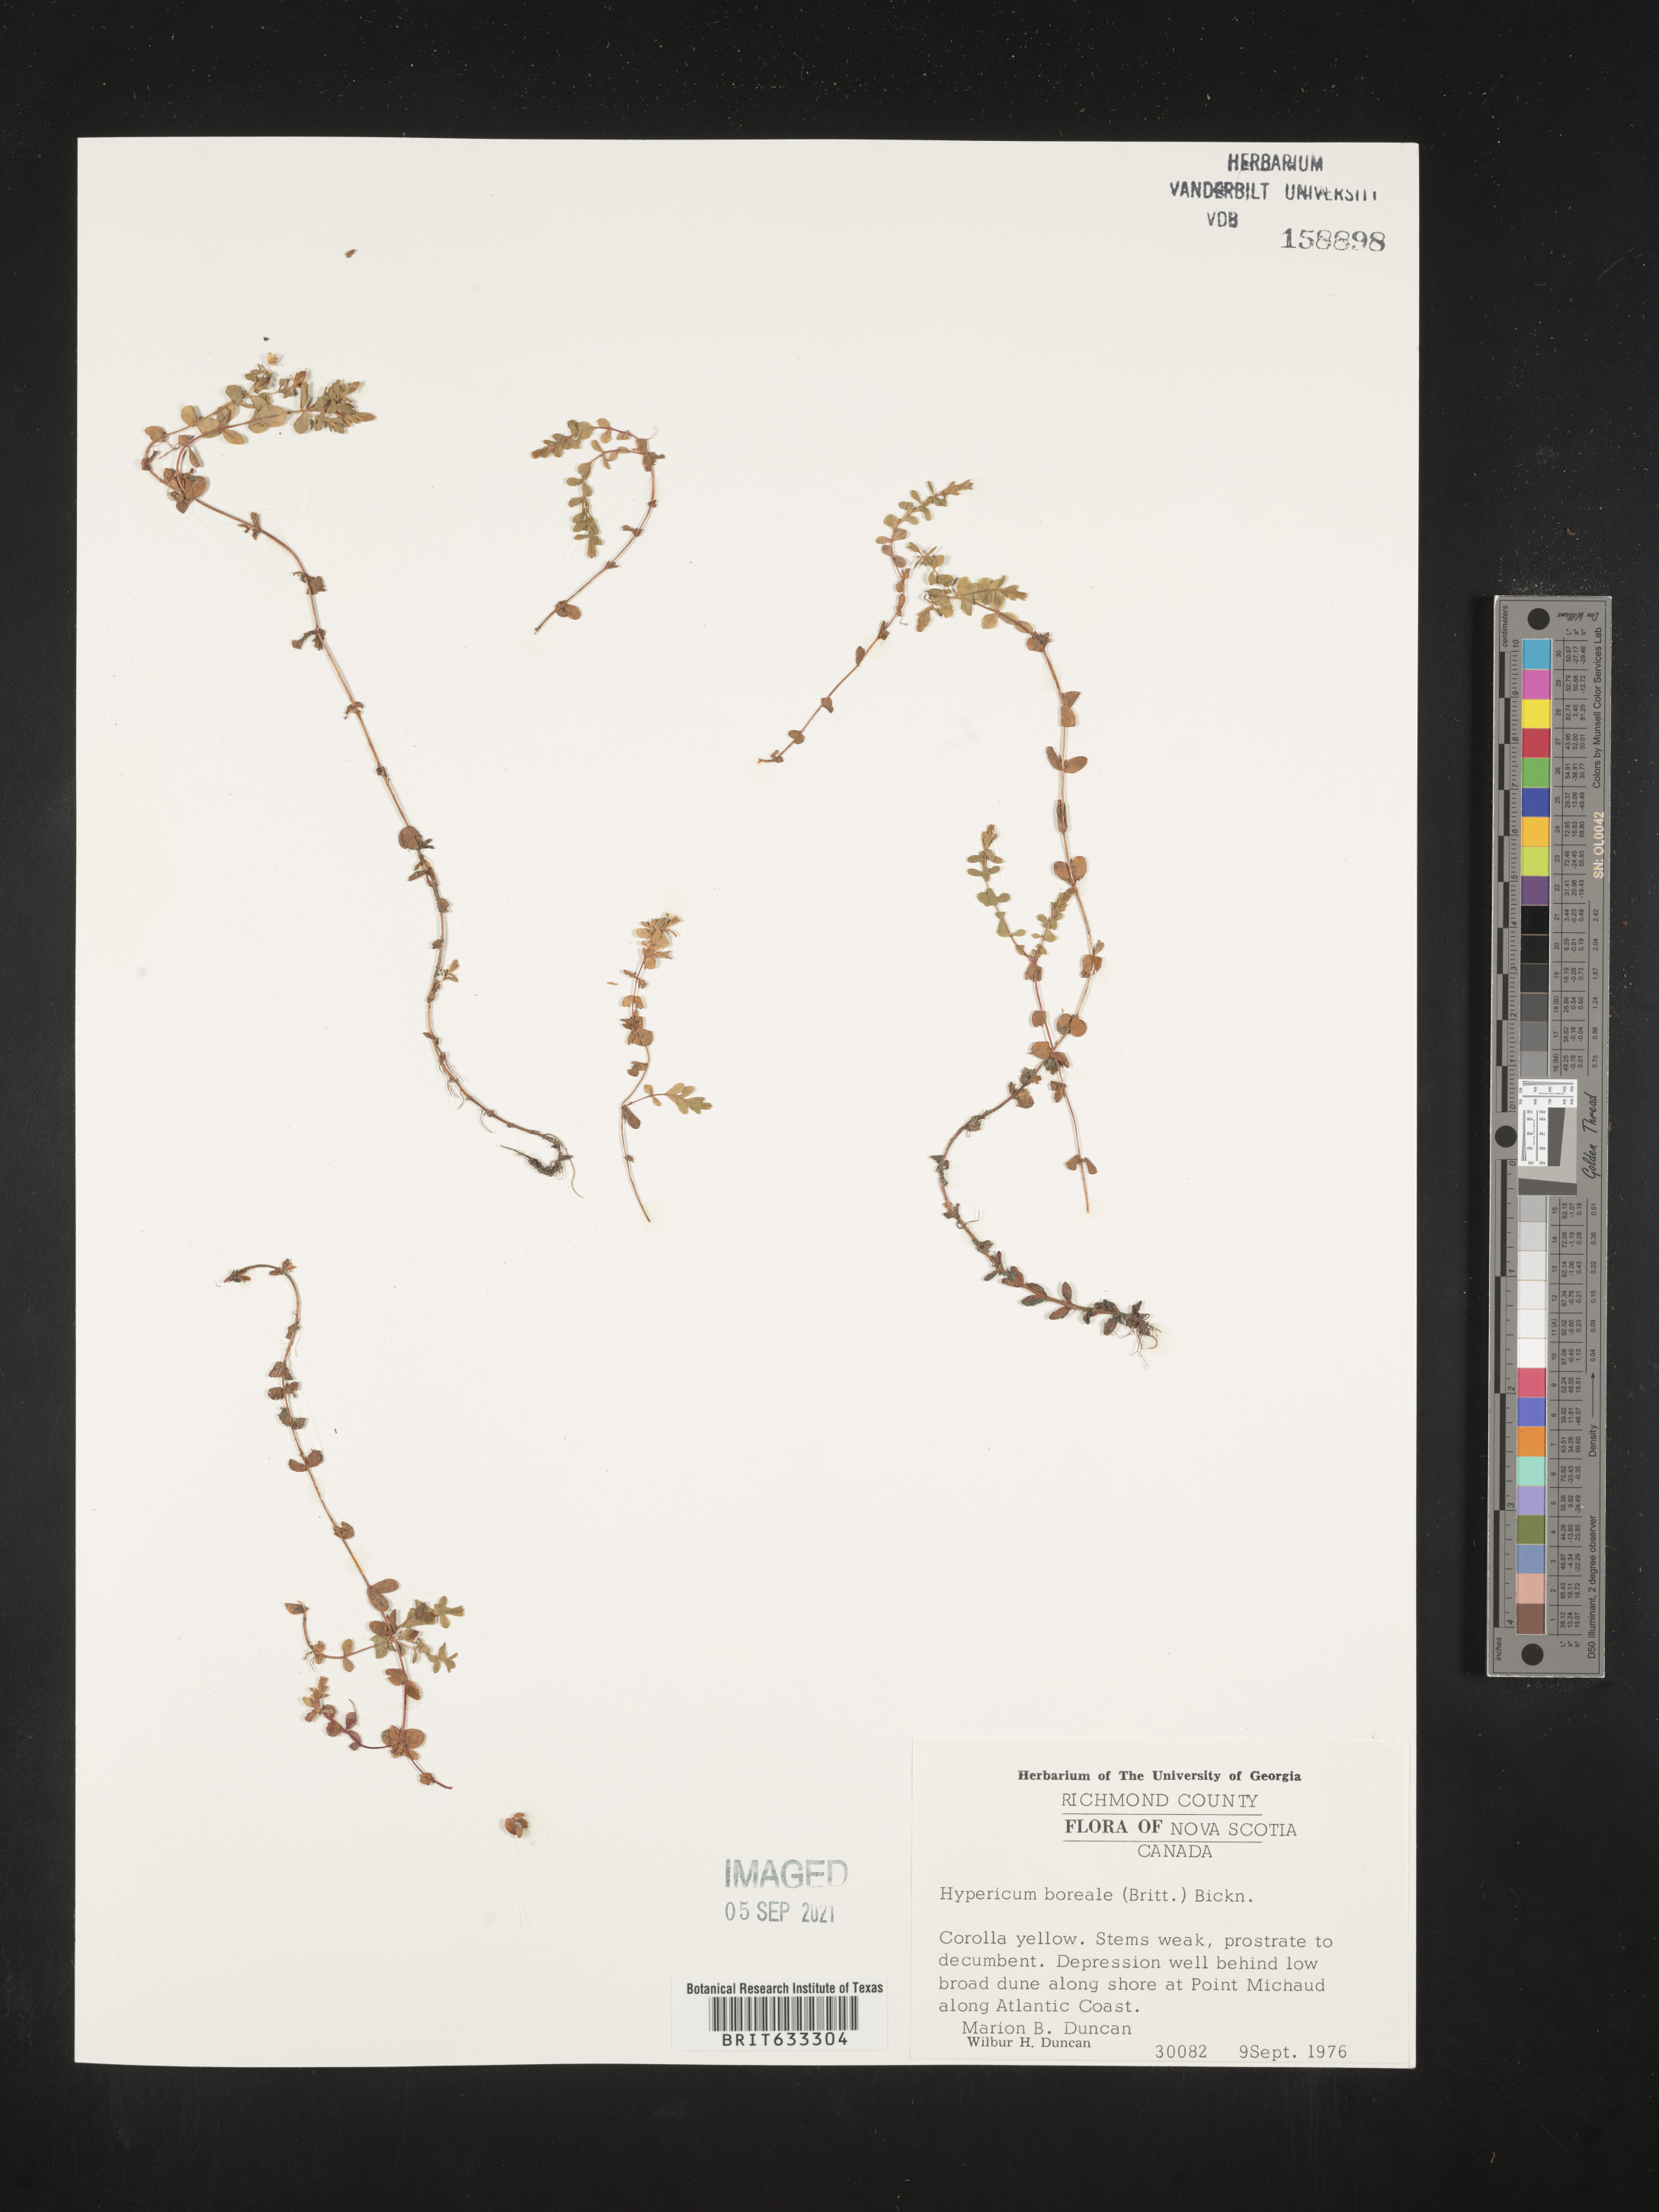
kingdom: Plantae
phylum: Tracheophyta
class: Magnoliopsida
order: Malpighiales
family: Hypericaceae
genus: Hypericum
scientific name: Hypericum
